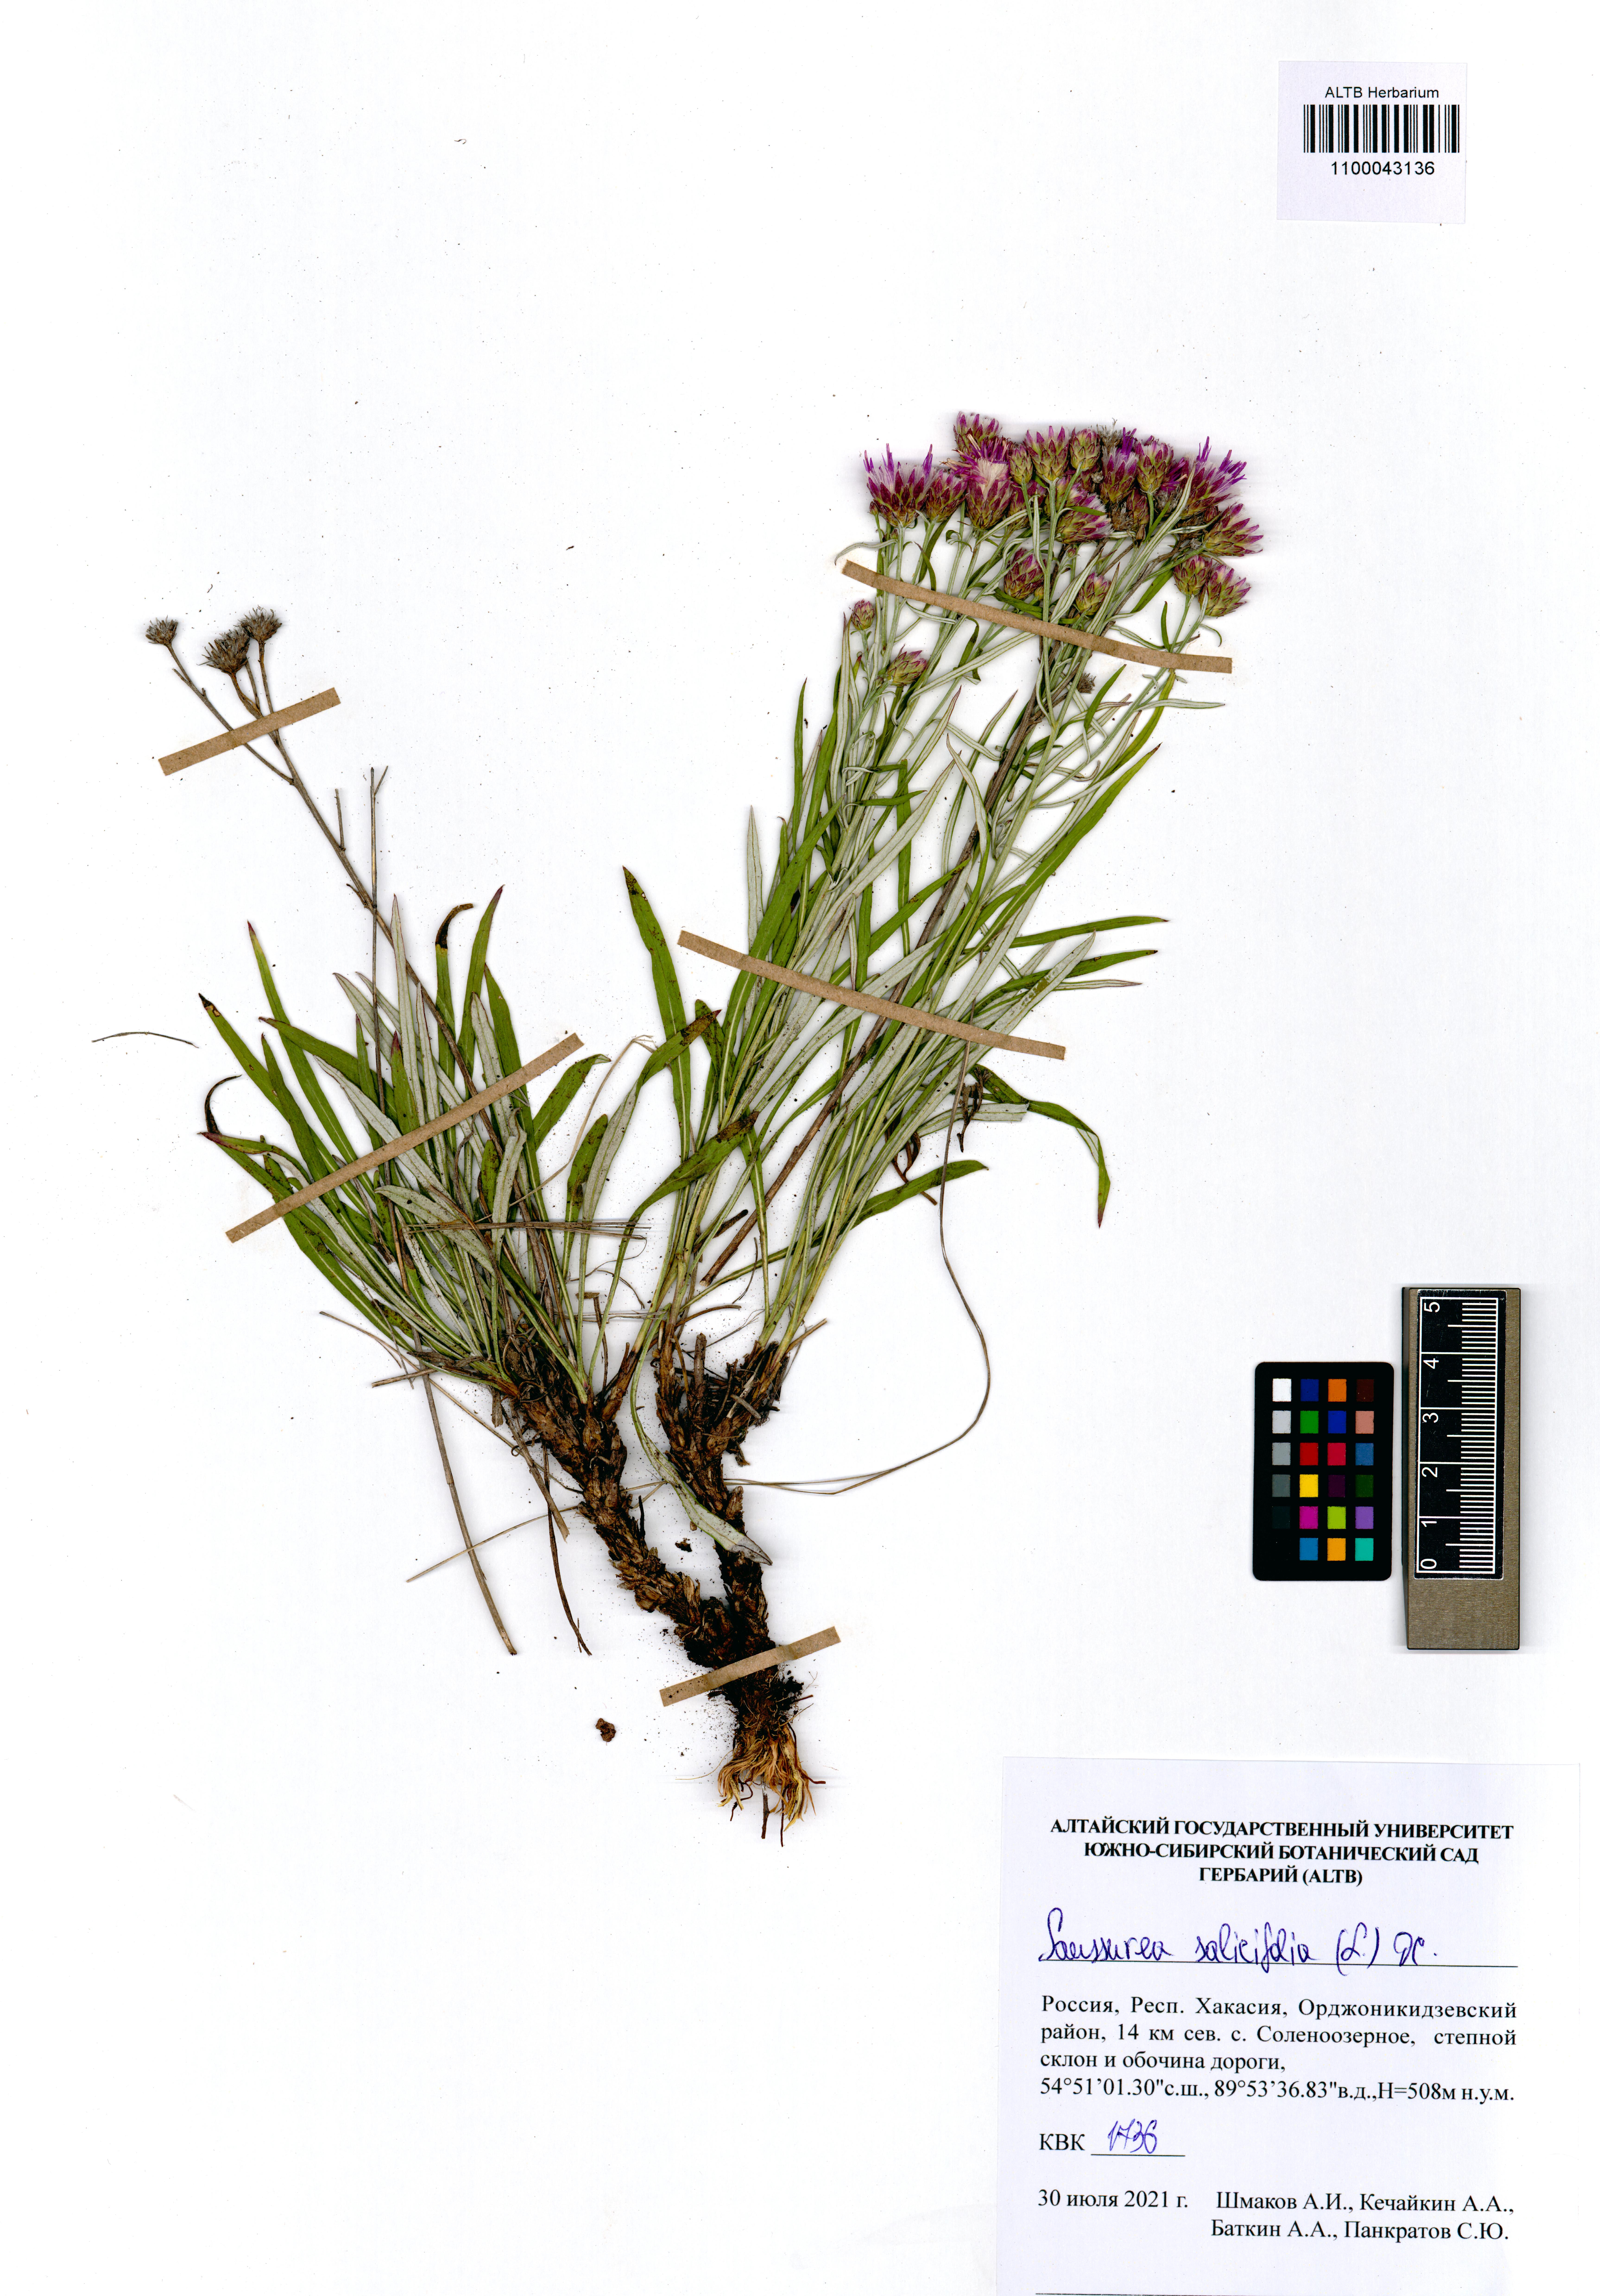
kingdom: Plantae
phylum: Tracheophyta
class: Magnoliopsida
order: Asterales
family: Asteraceae
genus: Saussurea
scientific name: Saussurea salicifolia
